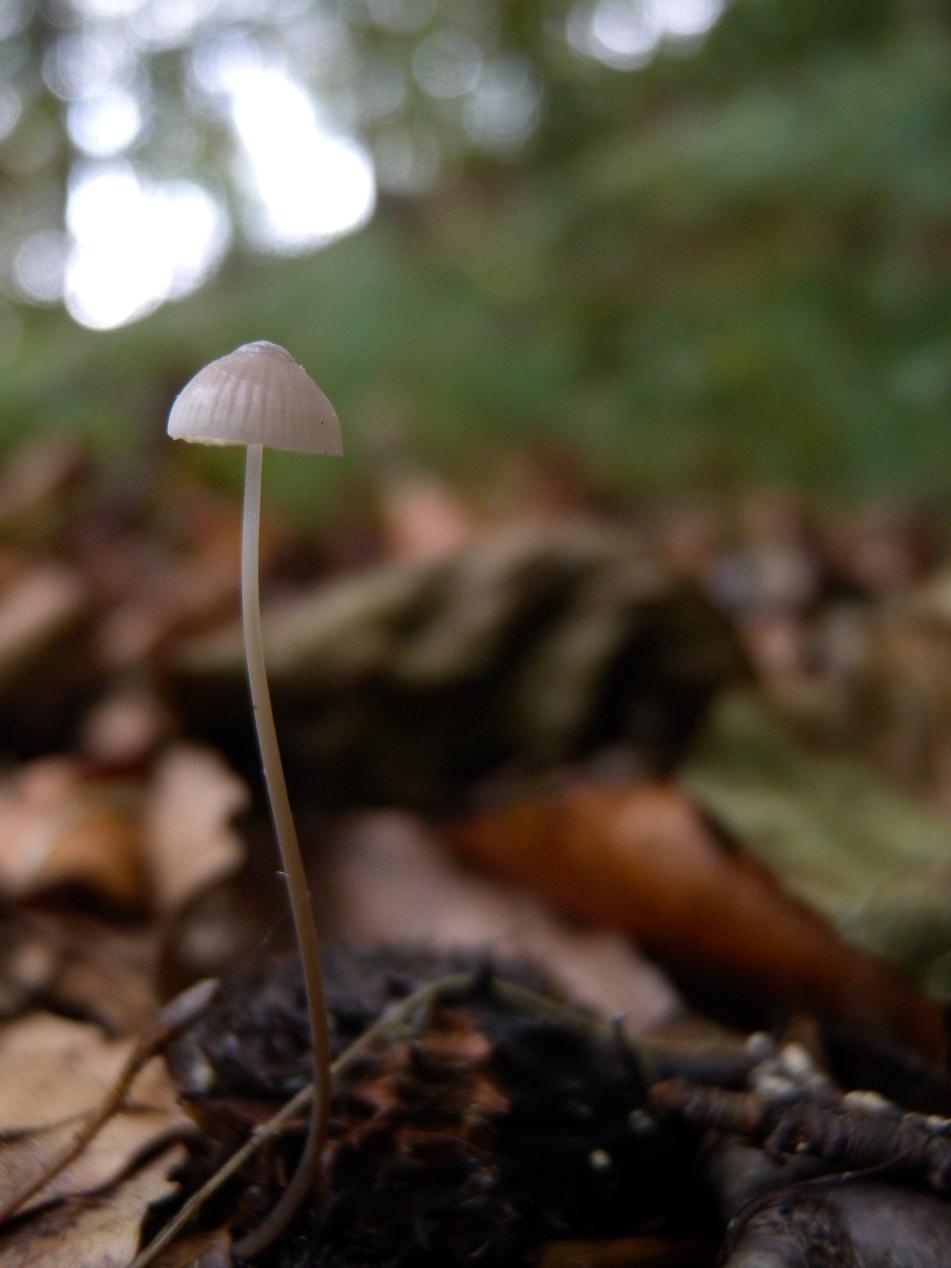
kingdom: Fungi
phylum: Basidiomycota
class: Agaricomycetes
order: Agaricales
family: Mycenaceae
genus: Mycena
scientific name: Mycena filopes
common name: jod-huesvamp
